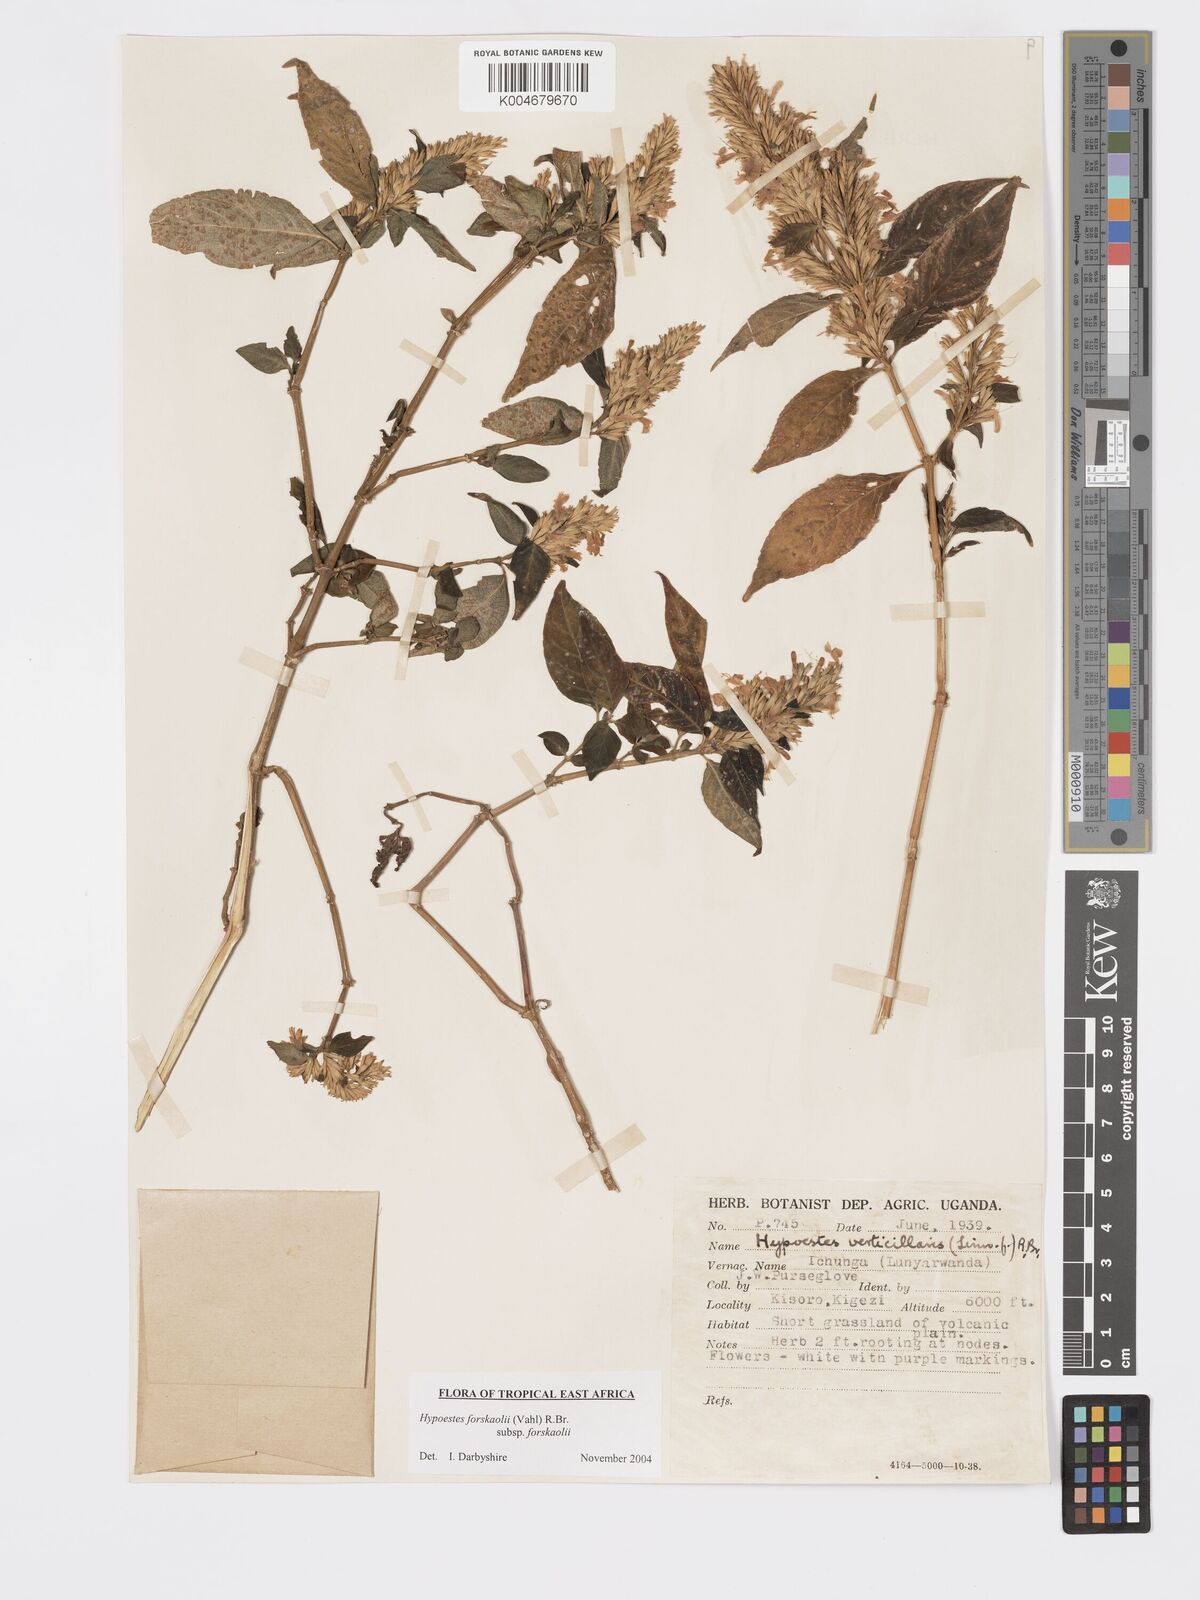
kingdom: Plantae
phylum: Tracheophyta
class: Magnoliopsida
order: Lamiales
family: Acanthaceae
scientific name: Acanthaceae
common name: Acanthaceae
